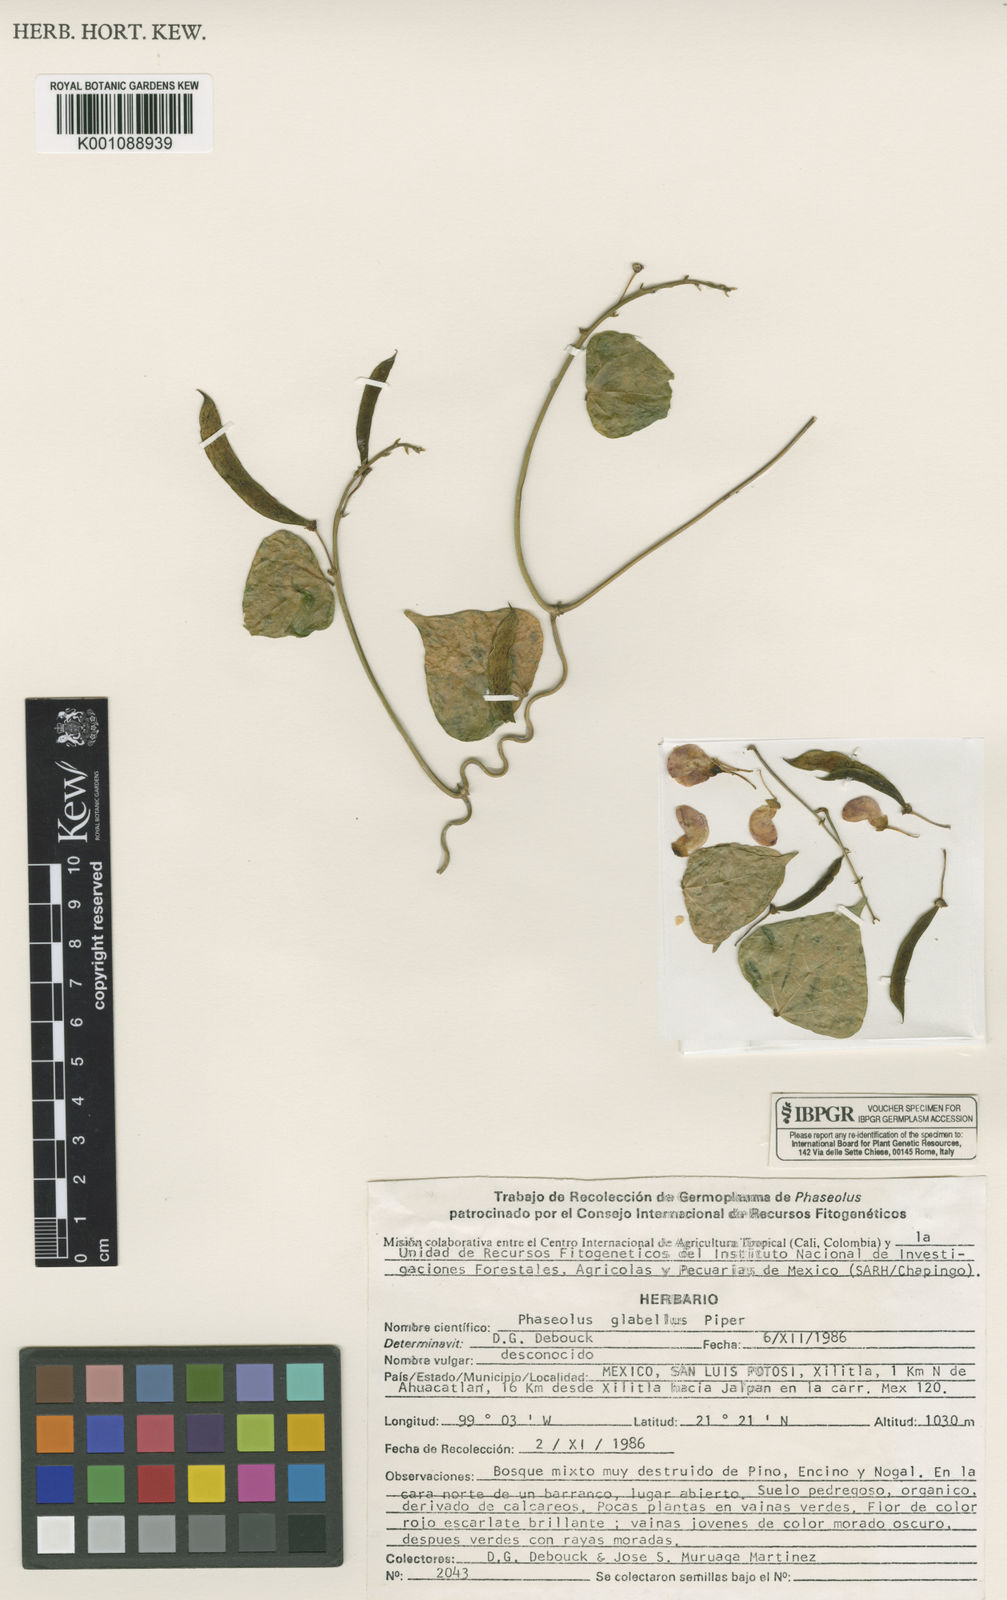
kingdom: Plantae
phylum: Tracheophyta
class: Magnoliopsida
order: Fabales
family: Fabaceae
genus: Phaseolus
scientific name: Phaseolus glabellus
